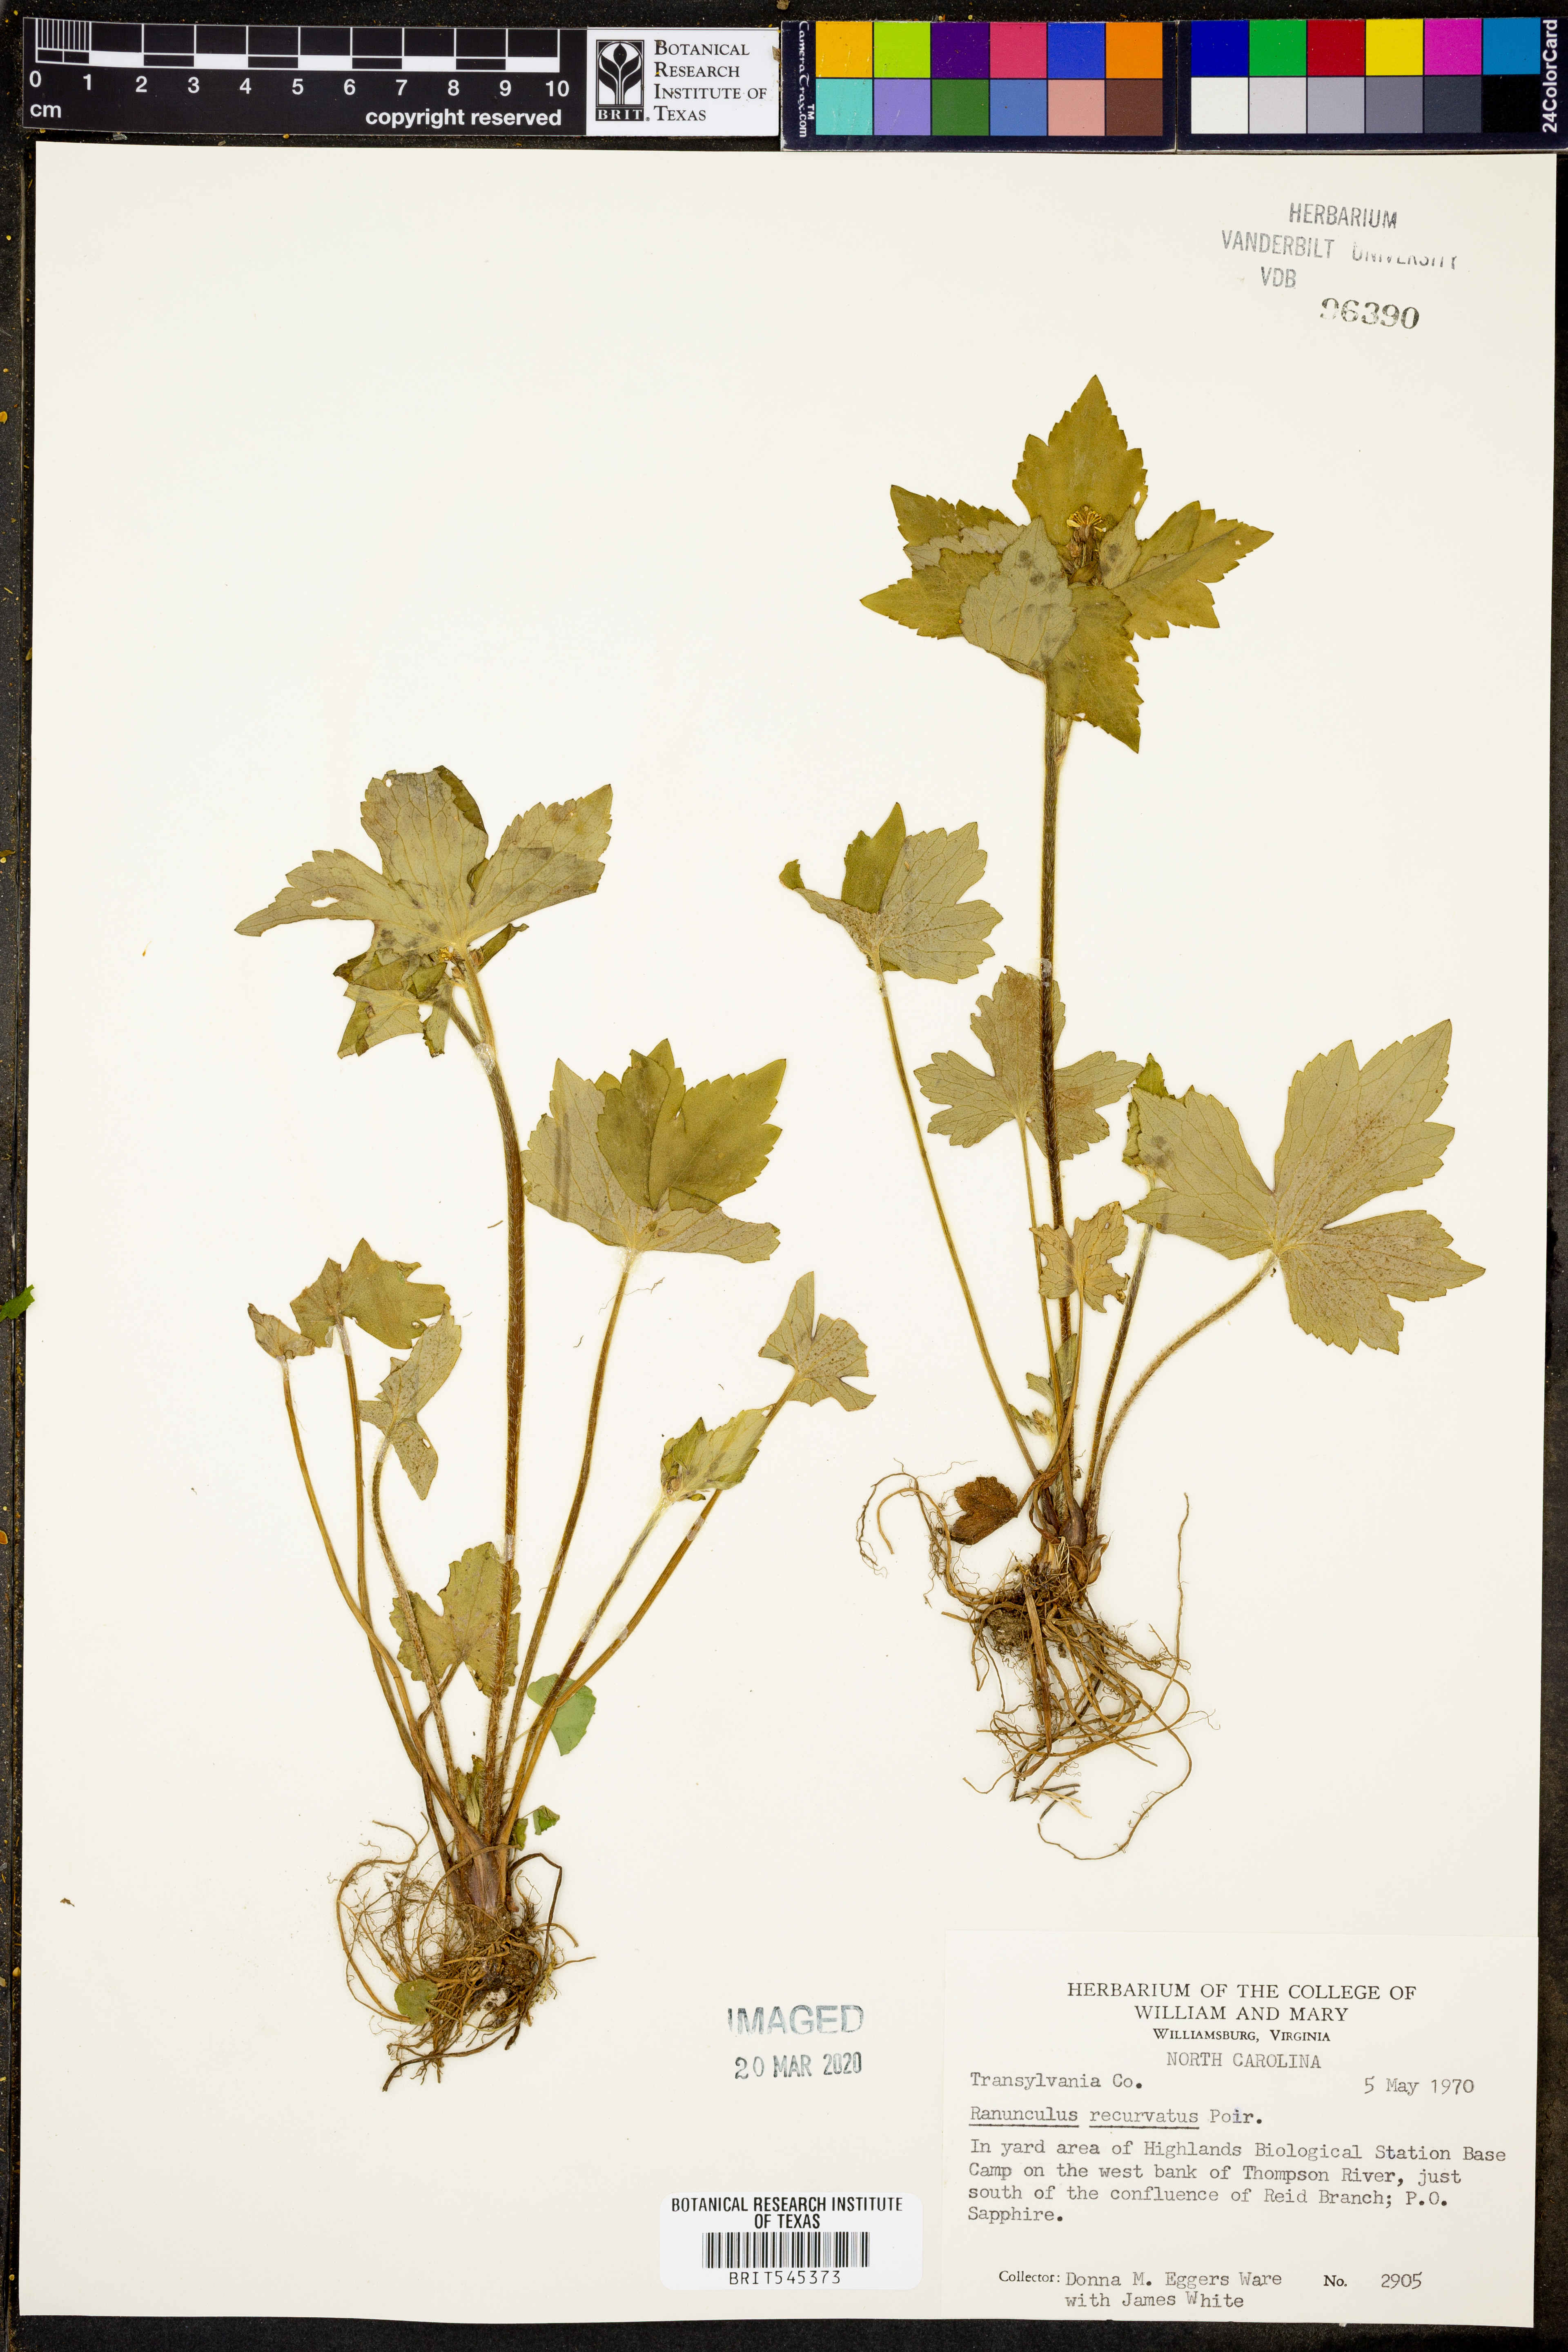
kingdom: Plantae
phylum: Tracheophyta
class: Magnoliopsida
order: Ranunculales
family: Ranunculaceae
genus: Ranunculus
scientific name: Ranunculus recurvatus
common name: Blisterwort
